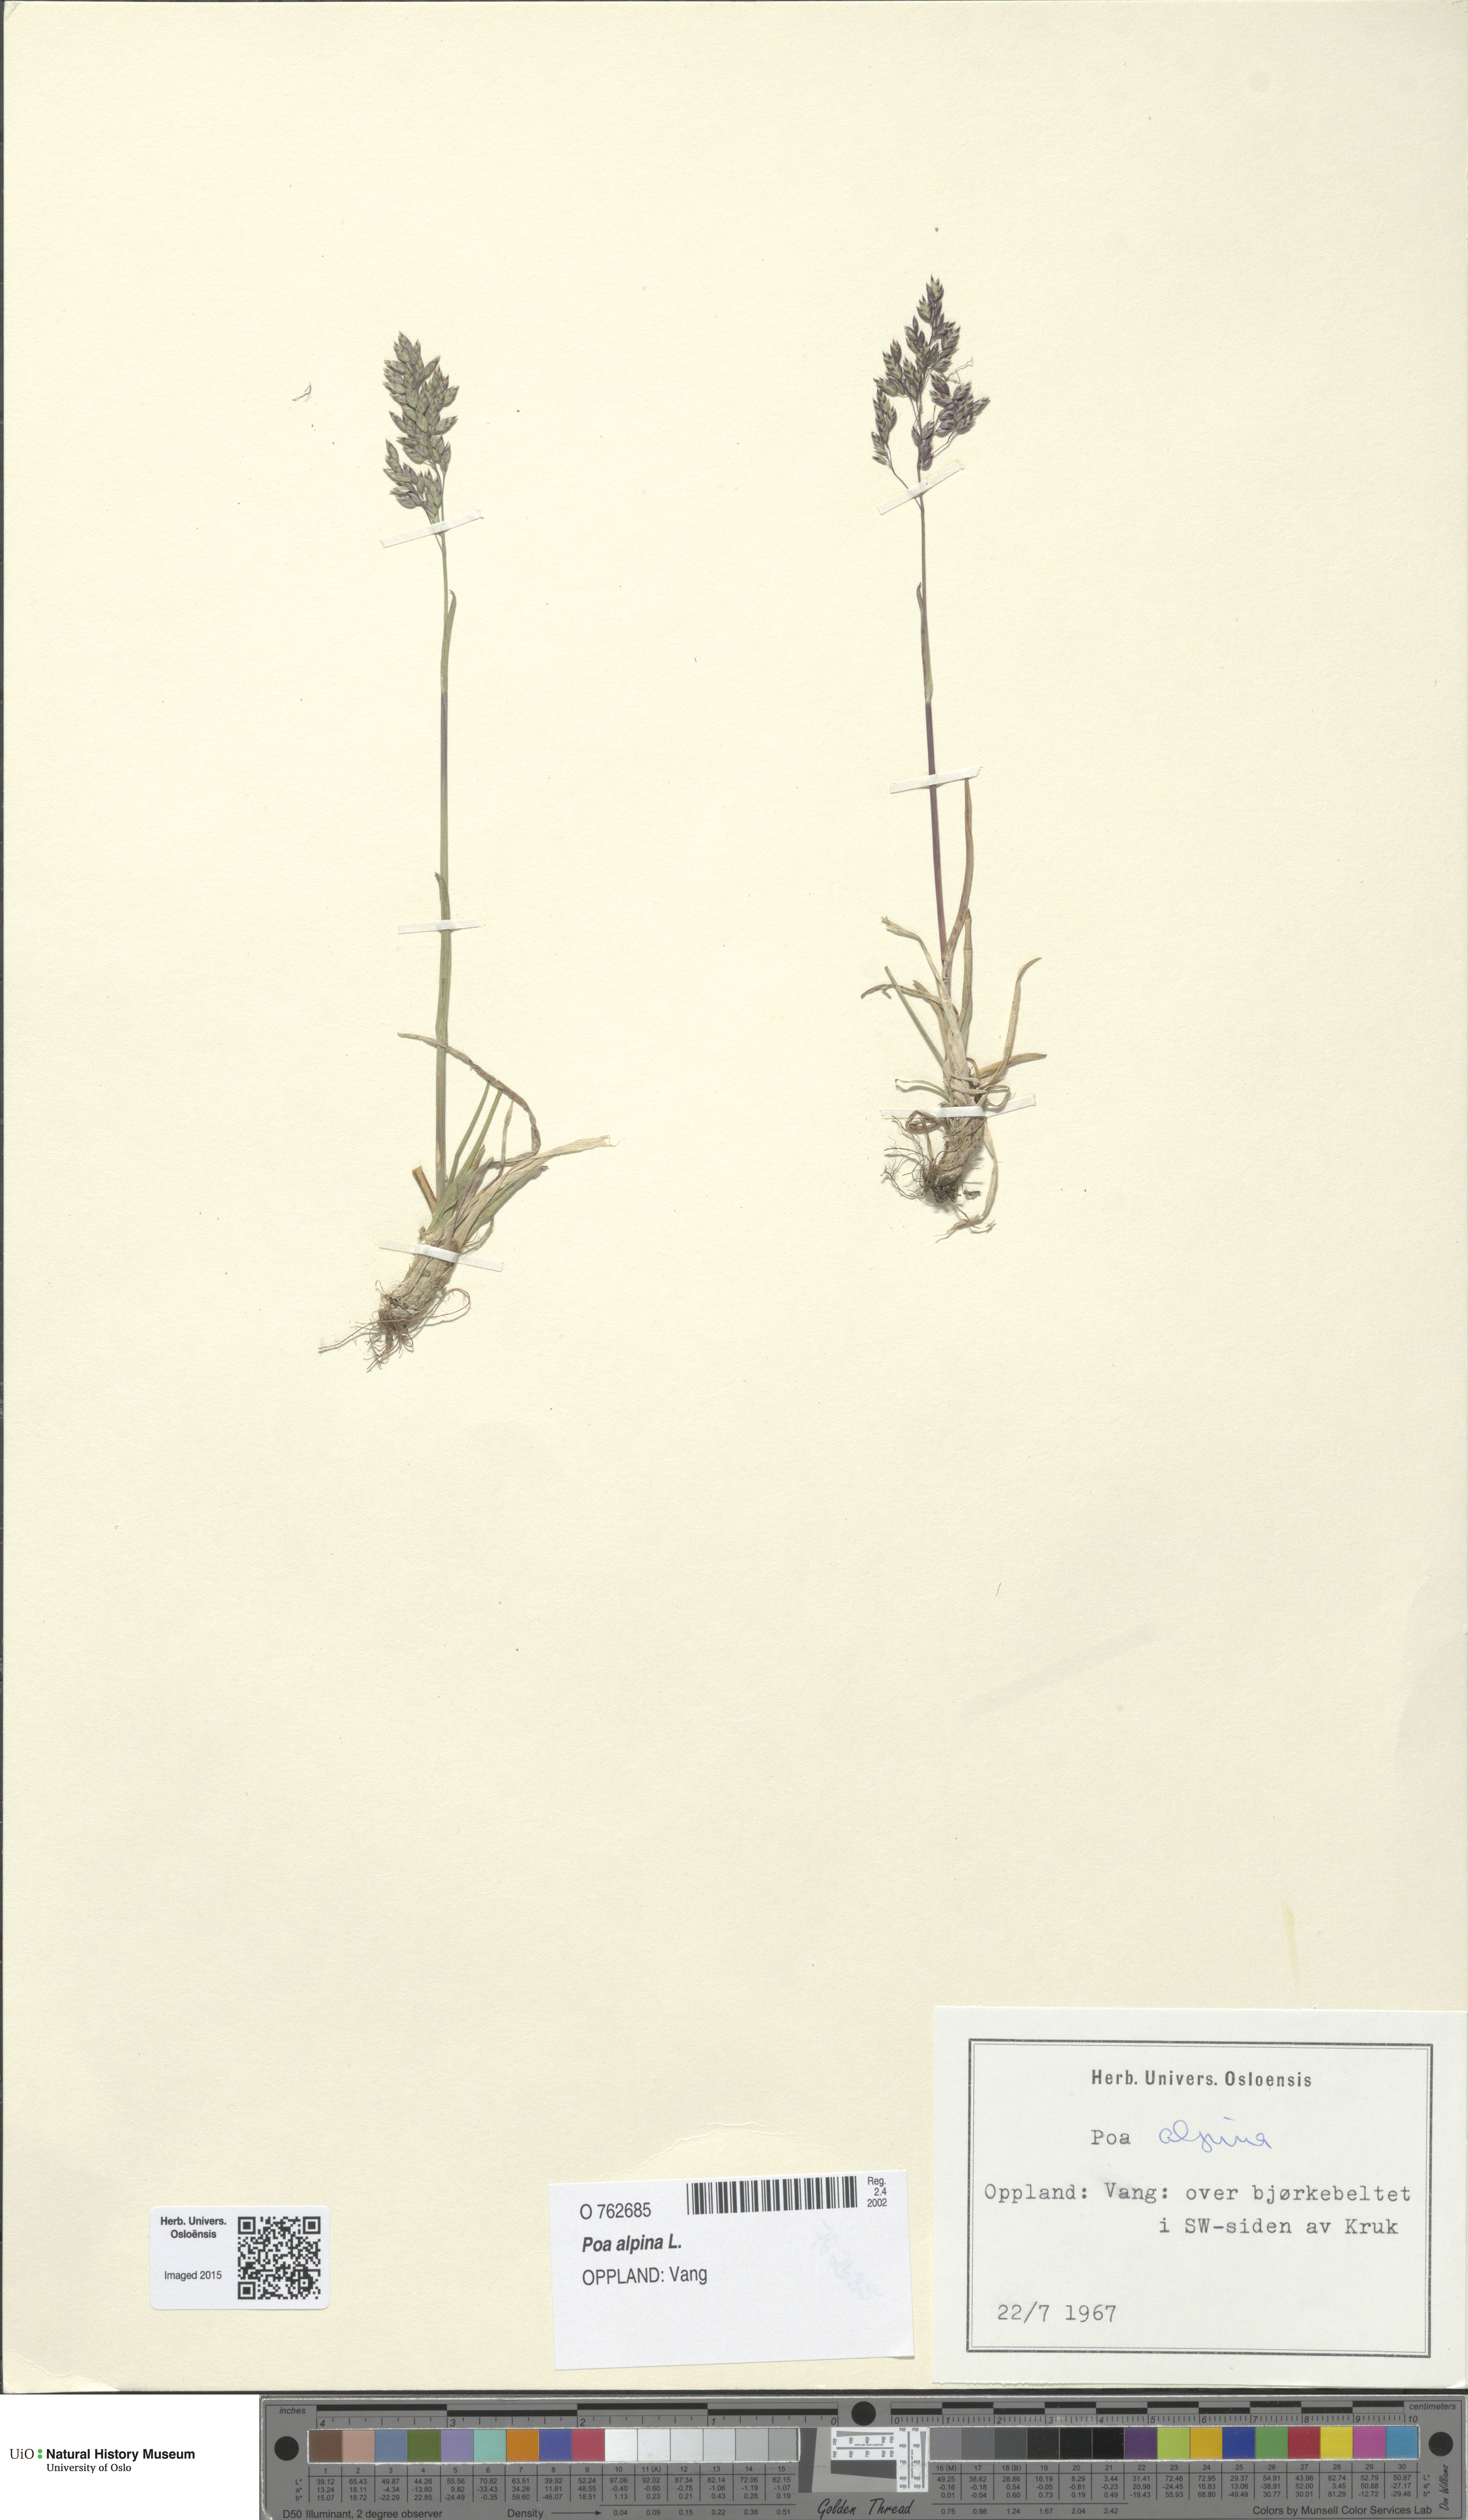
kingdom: Plantae
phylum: Tracheophyta
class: Liliopsida
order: Poales
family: Poaceae
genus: Poa
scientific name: Poa alpina
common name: Alpine bluegrass
